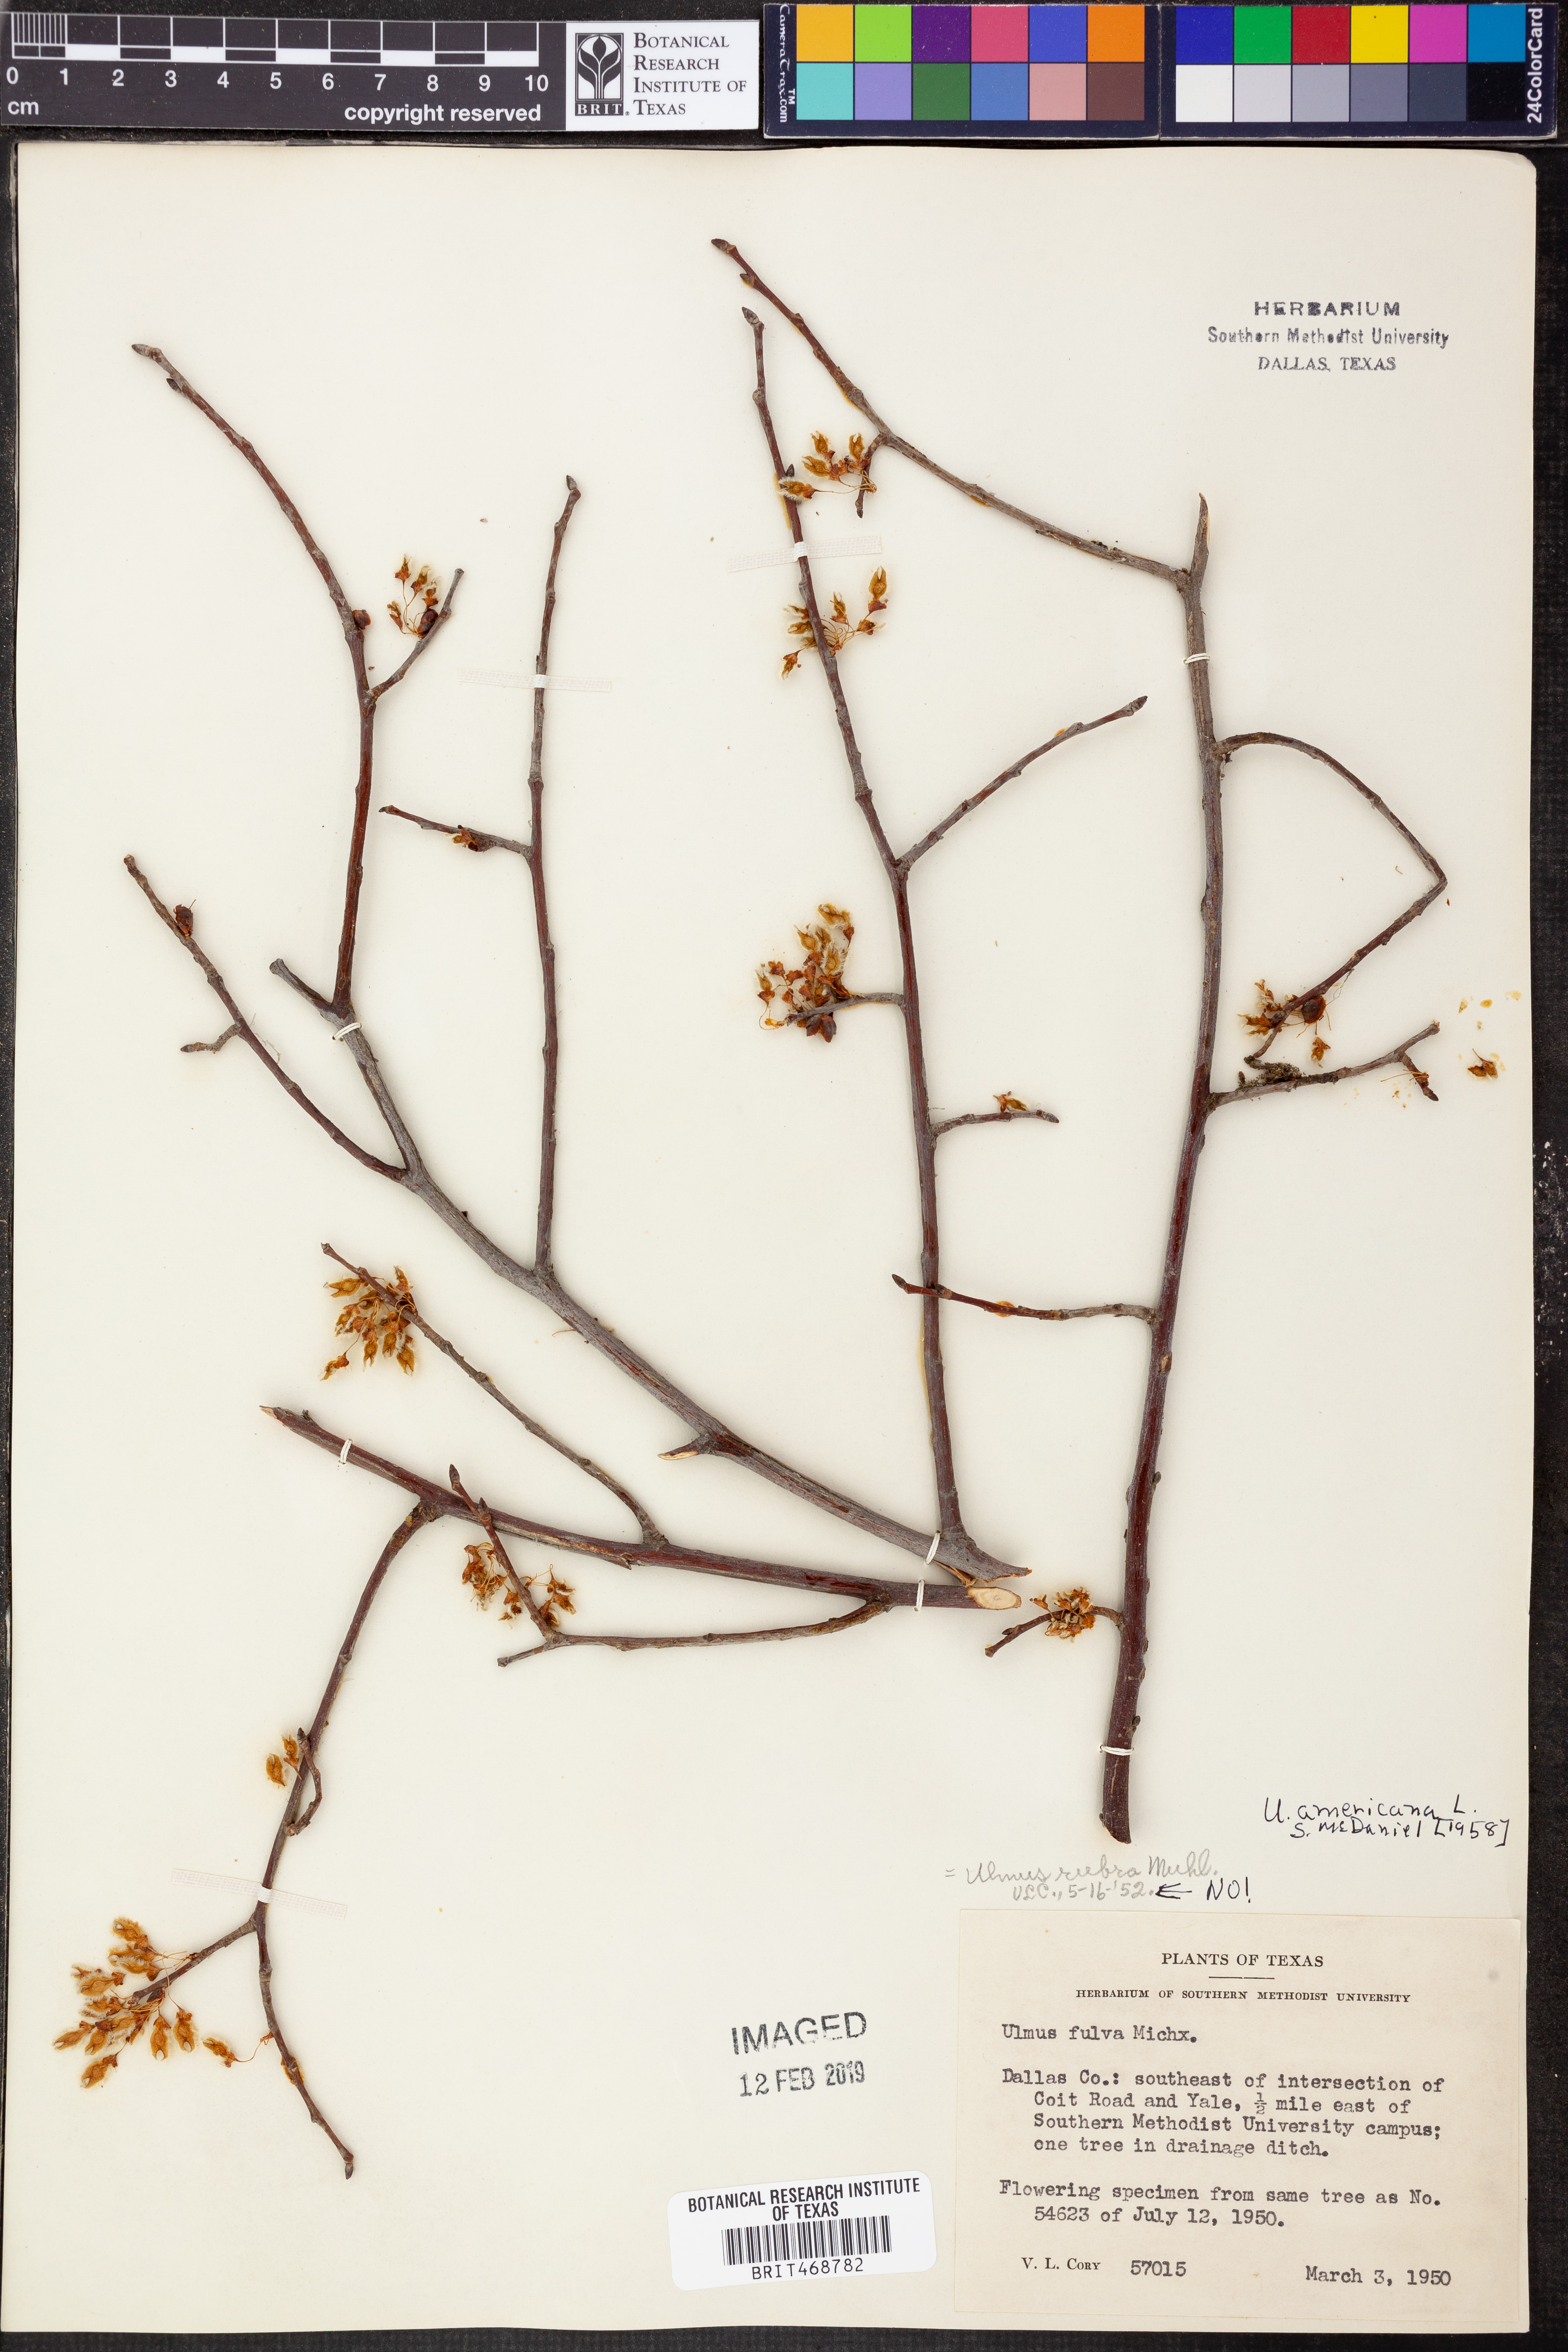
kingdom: Plantae
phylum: Tracheophyta
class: Magnoliopsida
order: Rosales
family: Ulmaceae
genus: Ulmus
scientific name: Ulmus americana
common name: American elm
